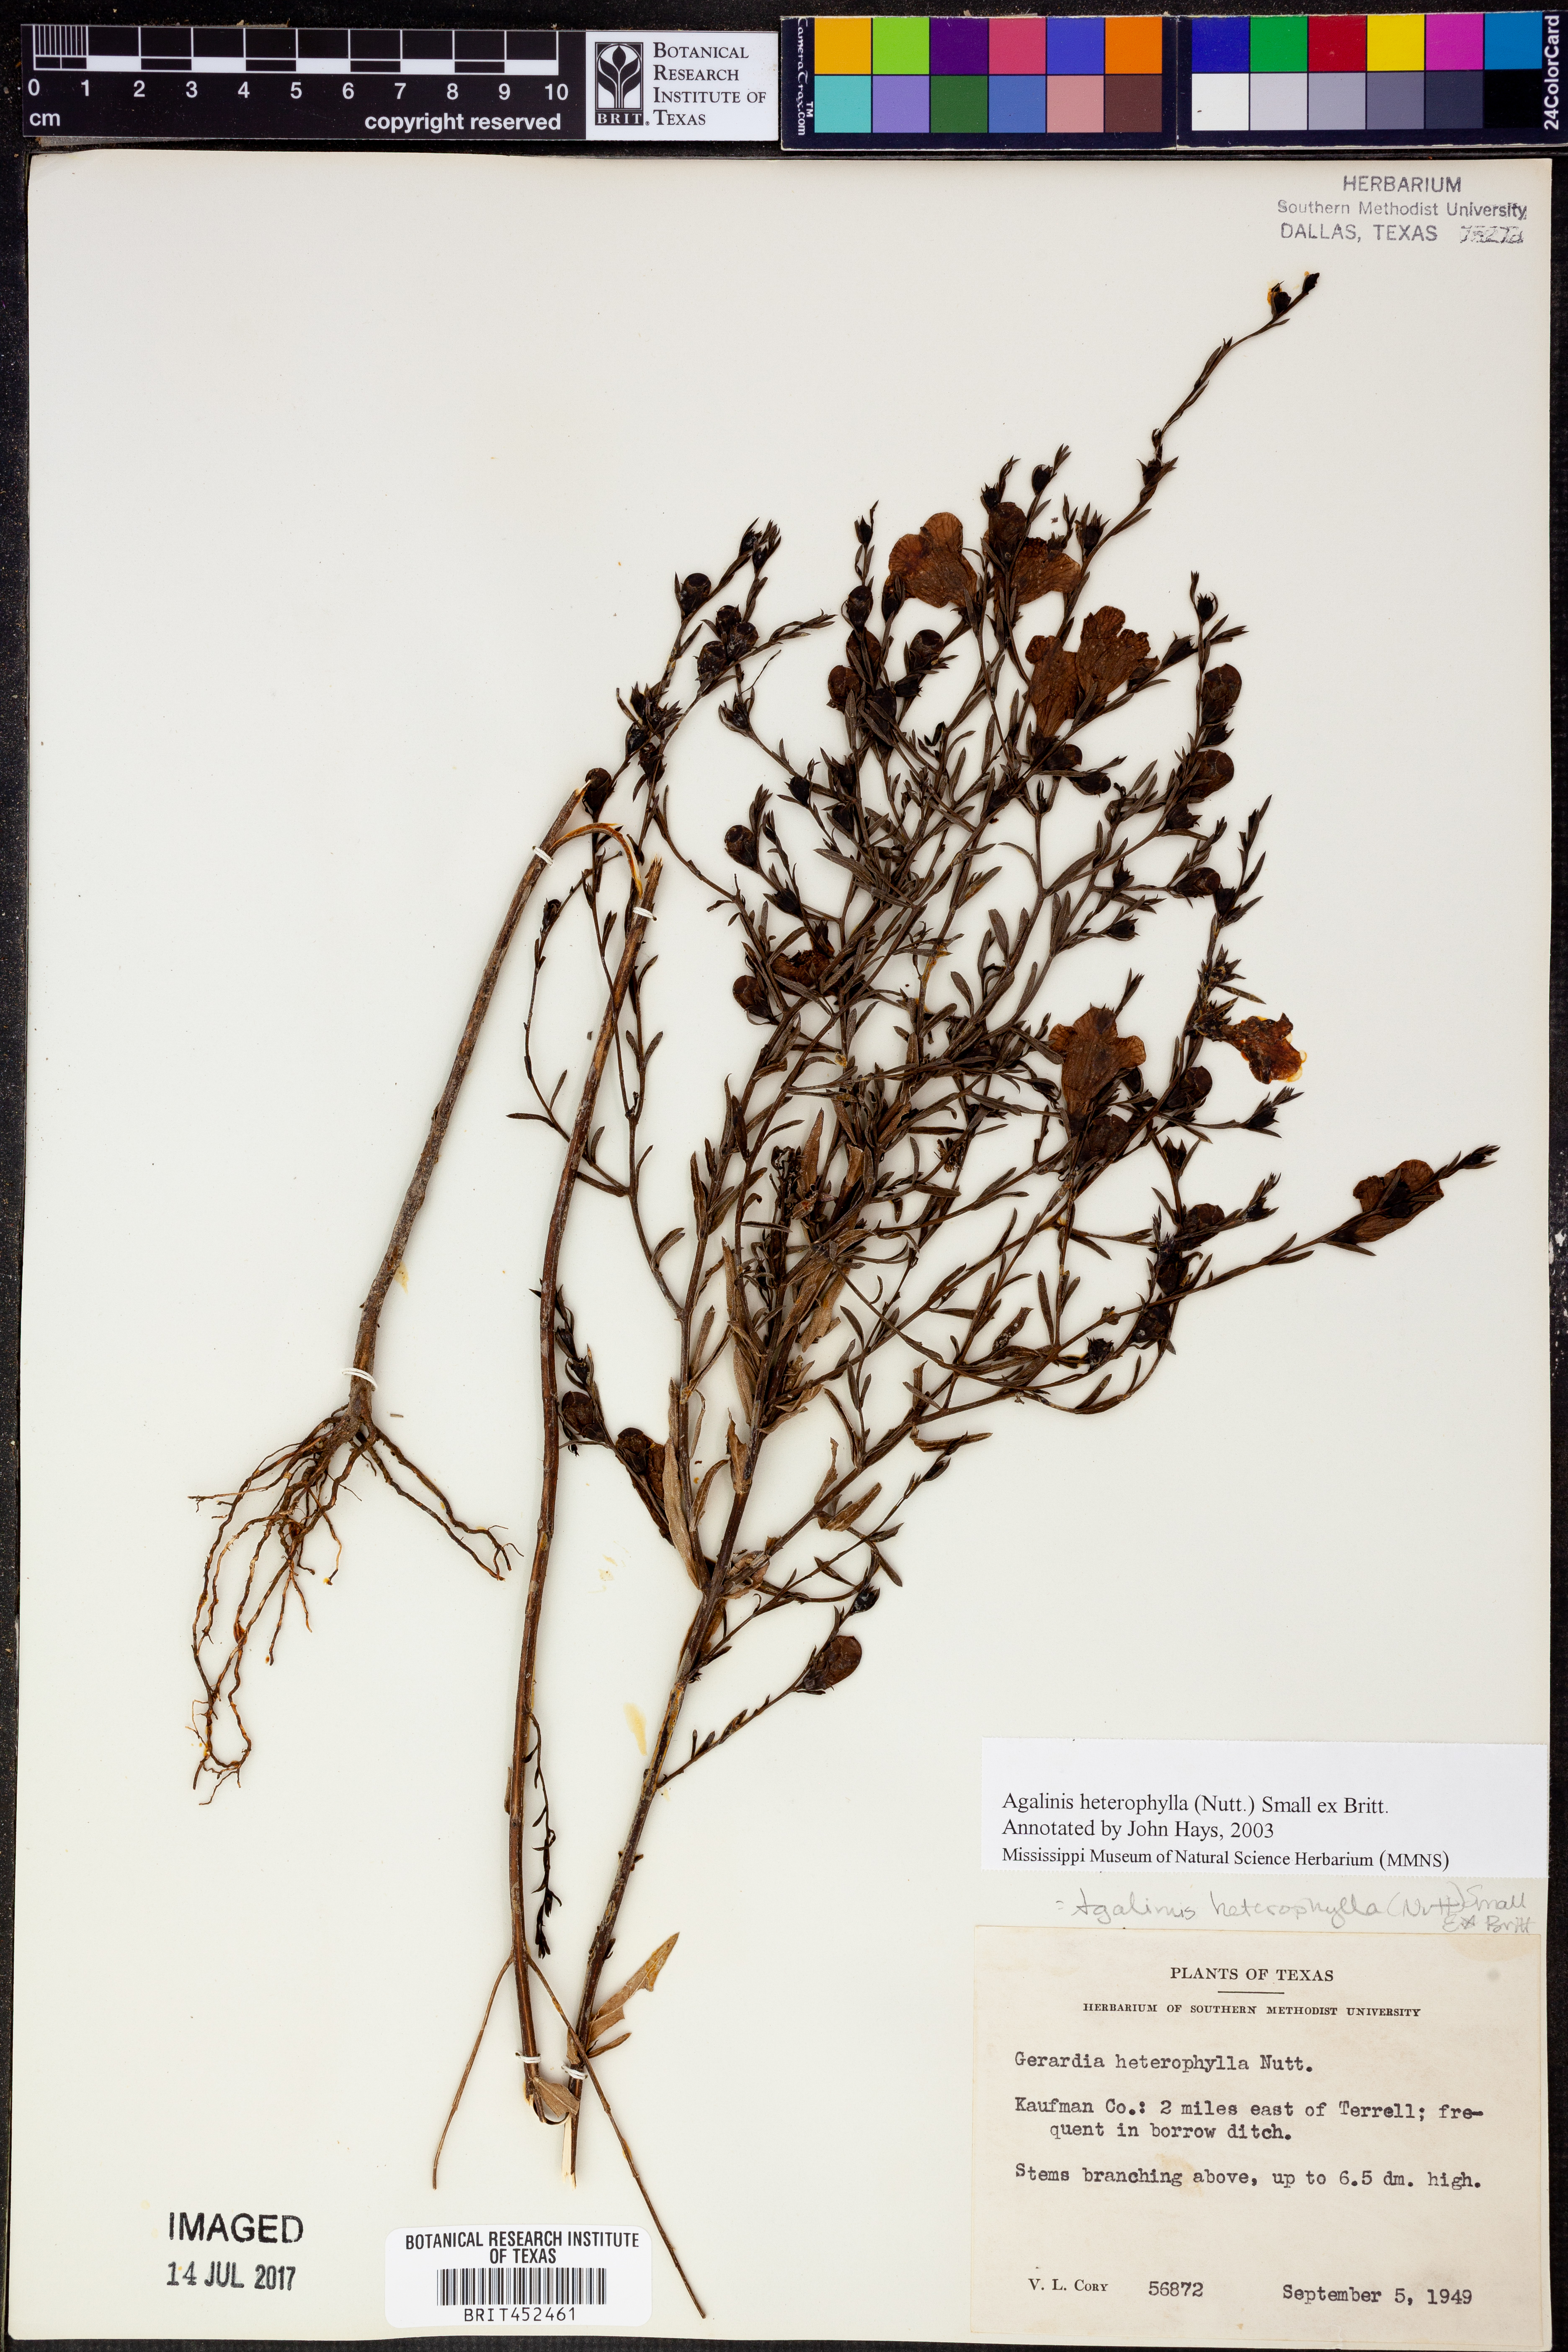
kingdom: Plantae
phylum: Tracheophyta
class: Magnoliopsida
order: Lamiales
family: Orobanchaceae
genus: Agalinis
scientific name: Agalinis heterophylla
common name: Prairie agalinis
